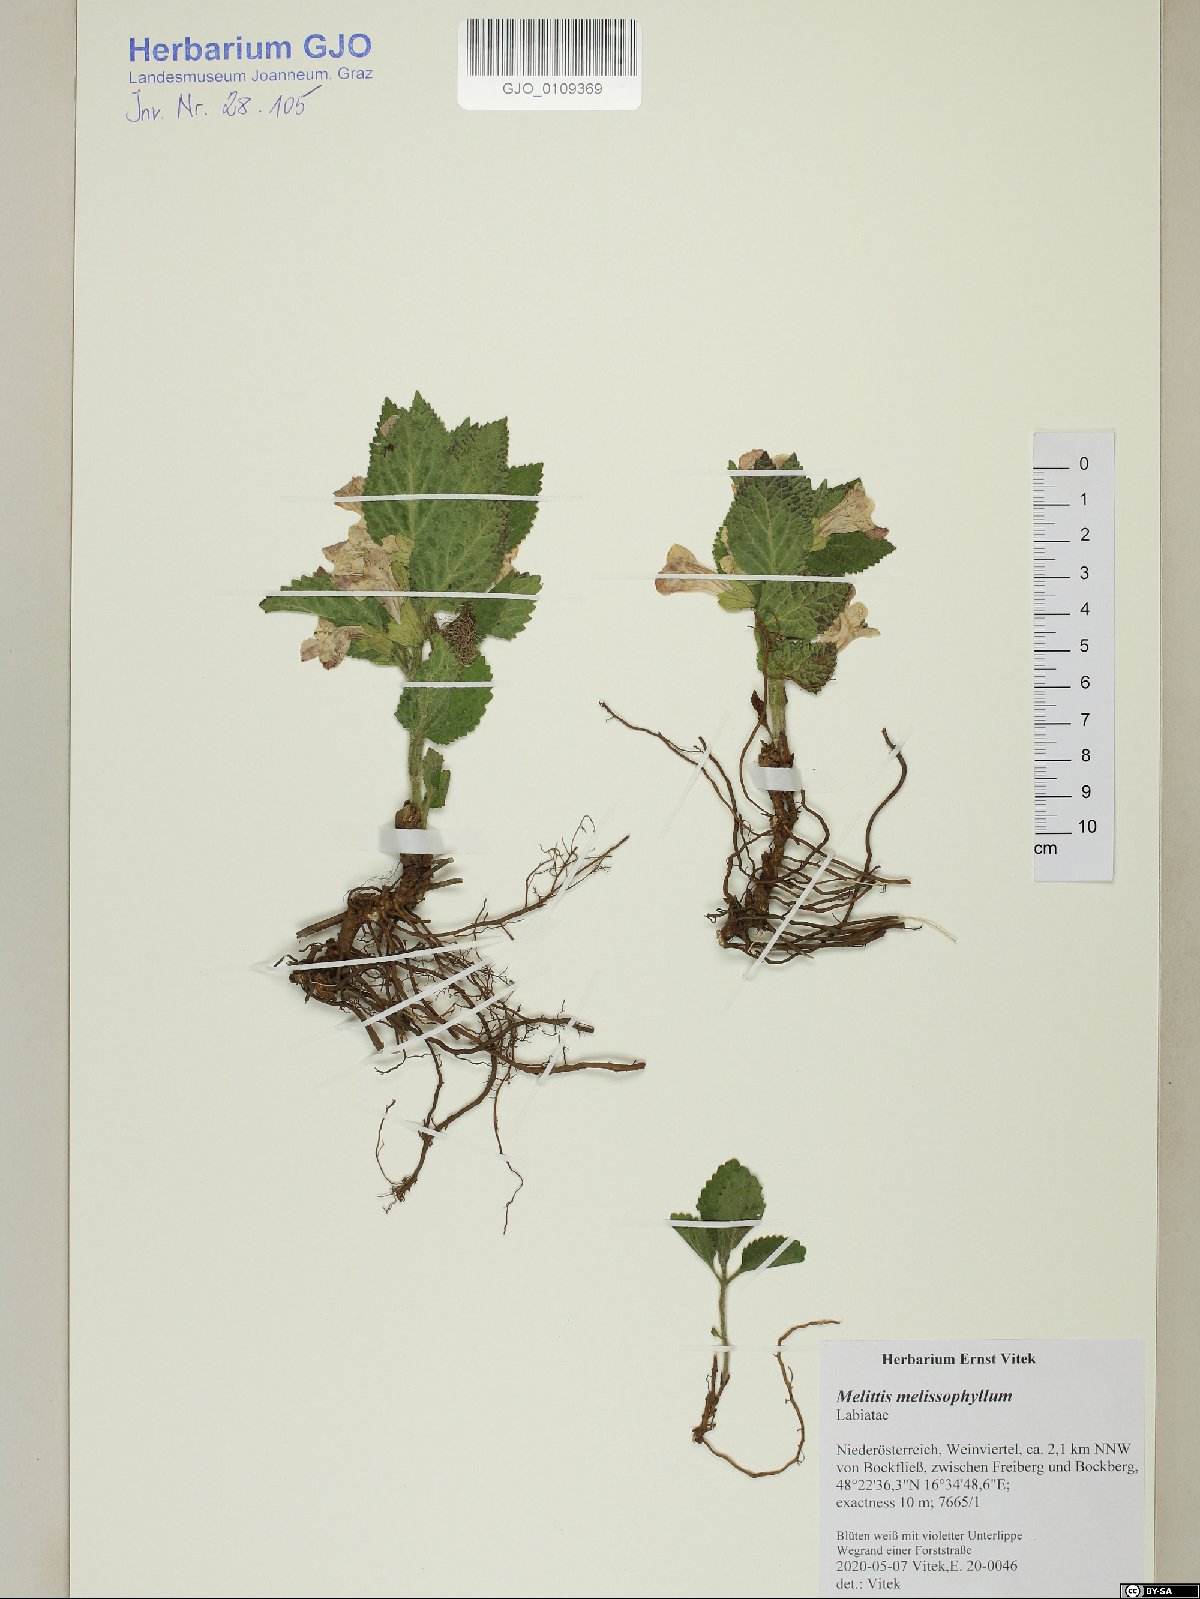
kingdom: Plantae
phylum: Tracheophyta
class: Magnoliopsida
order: Lamiales
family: Lamiaceae
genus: Melittis
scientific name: Melittis melissophyllum
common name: Bastard balm
